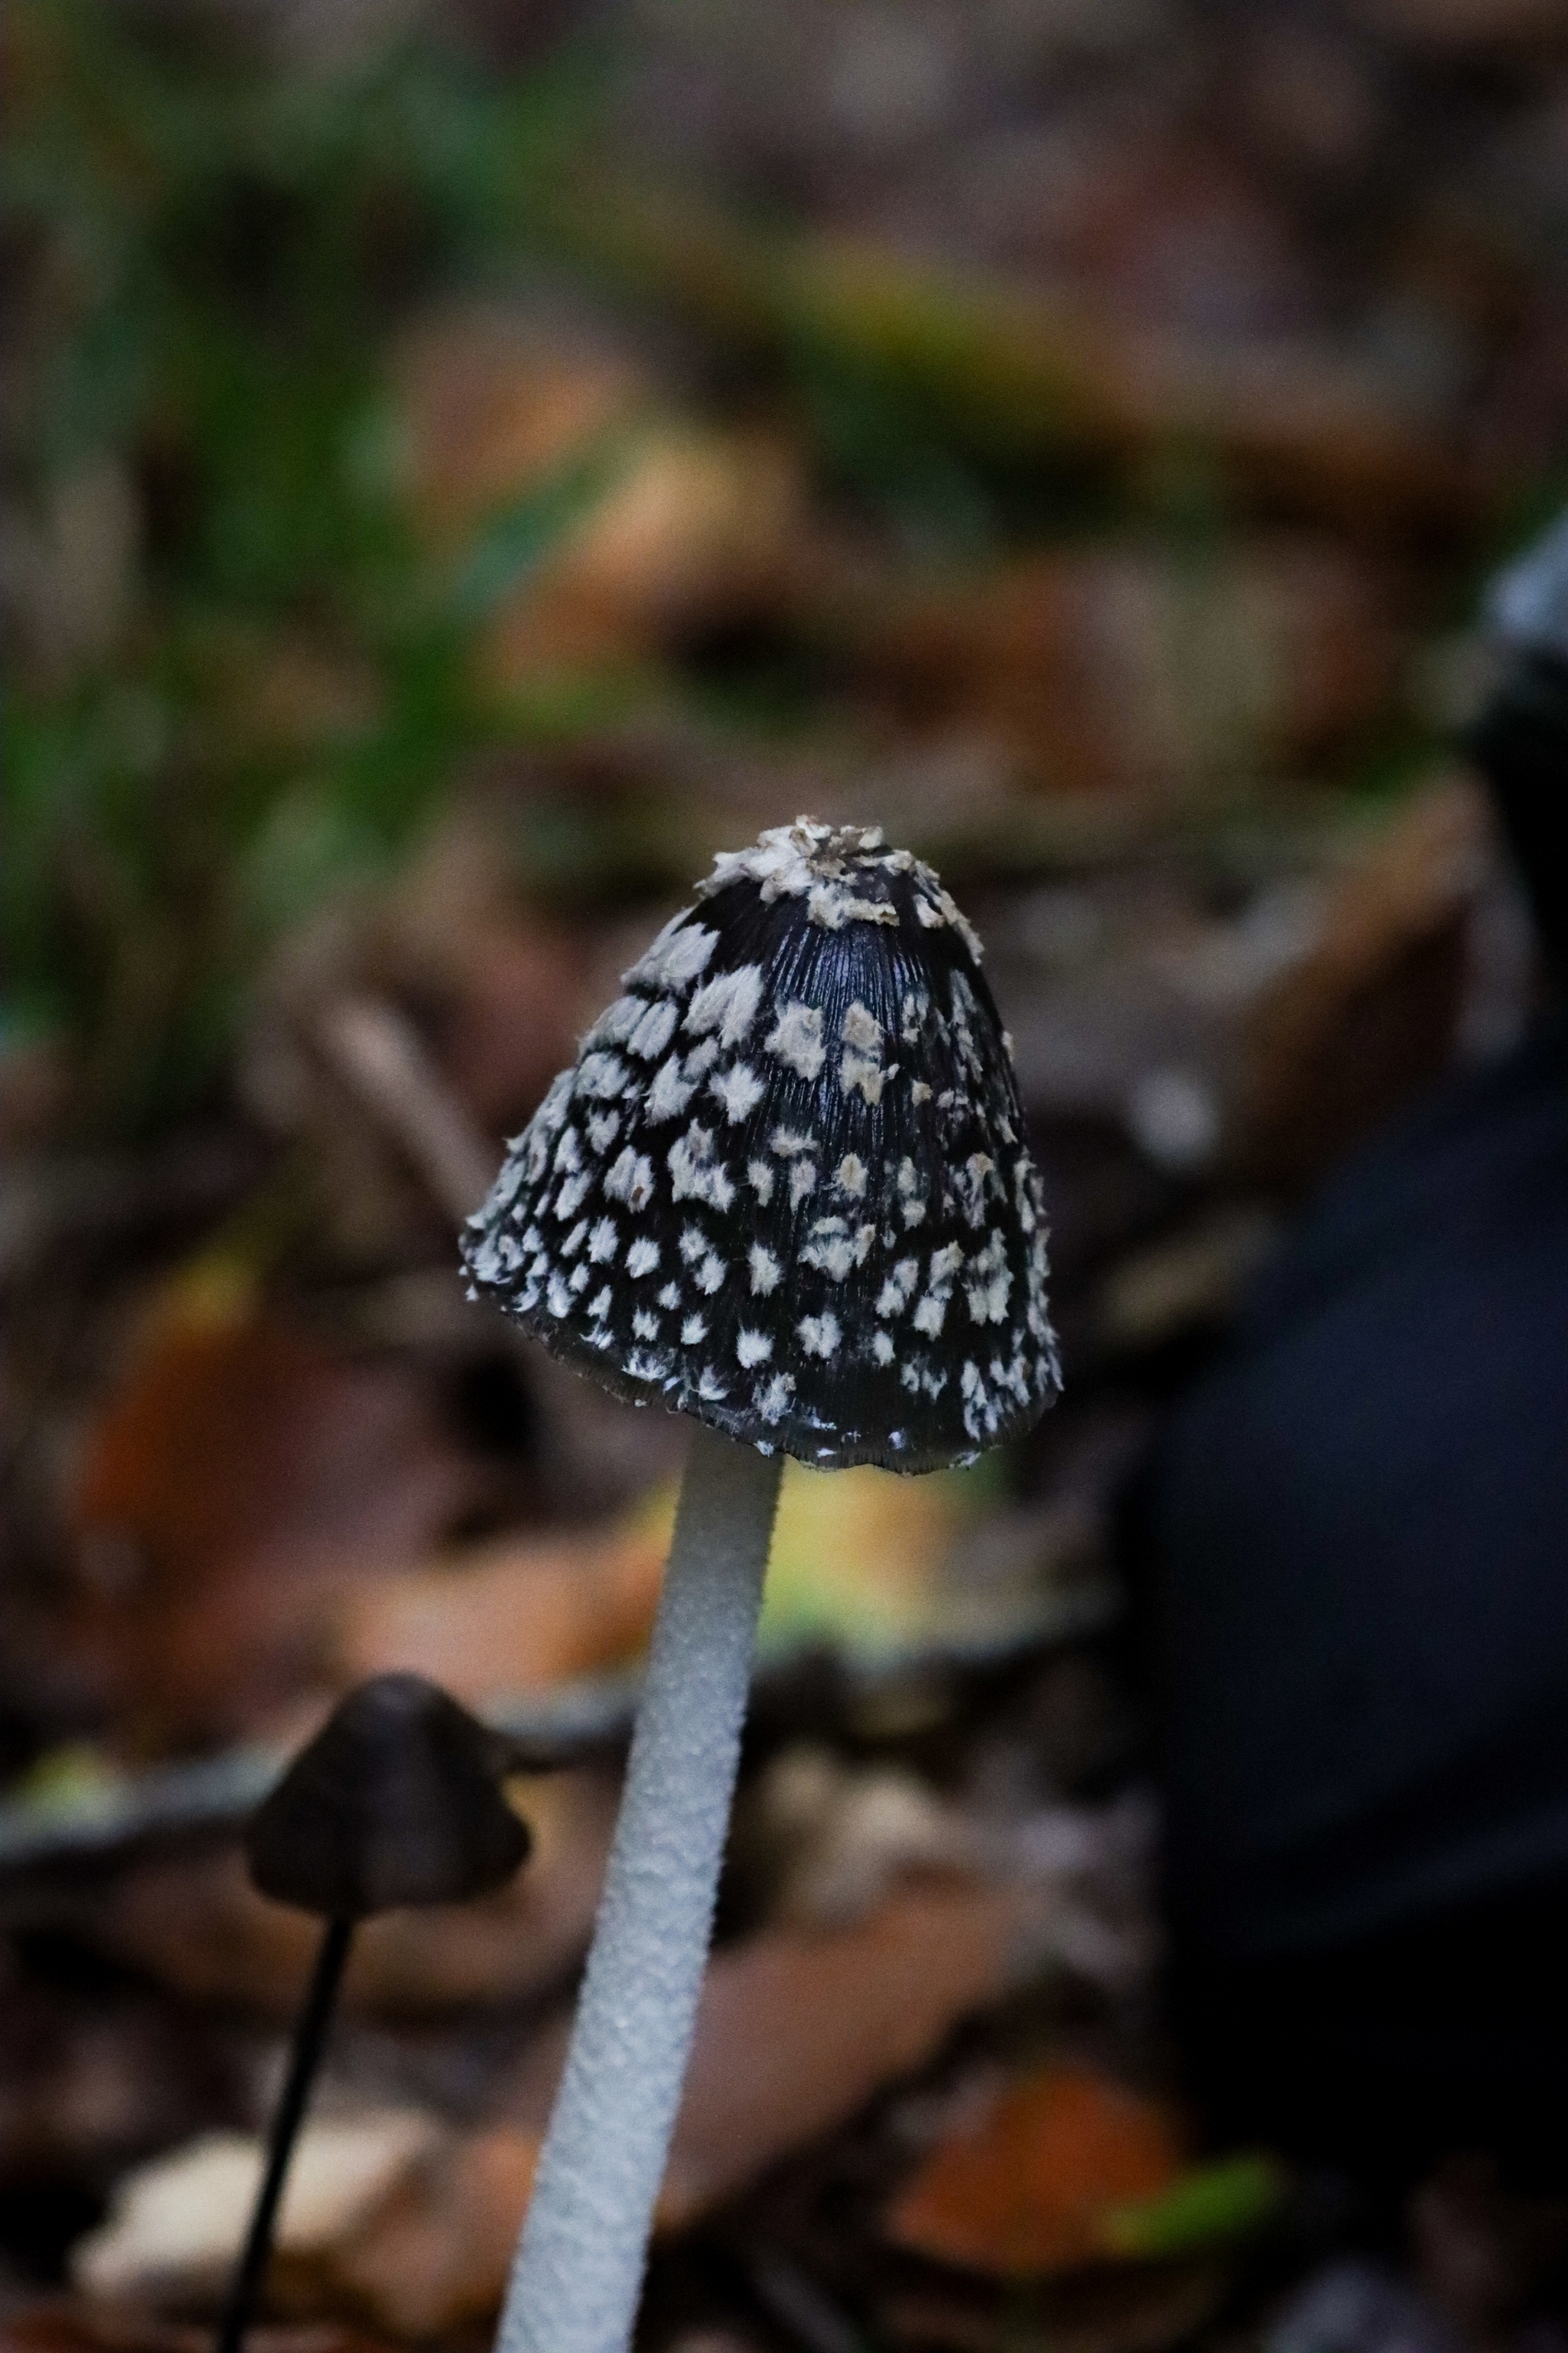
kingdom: Fungi
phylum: Basidiomycota
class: Agaricomycetes
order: Agaricales
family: Psathyrellaceae
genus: Coprinopsis
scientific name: Coprinopsis picacea
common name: Skade-blækhat
